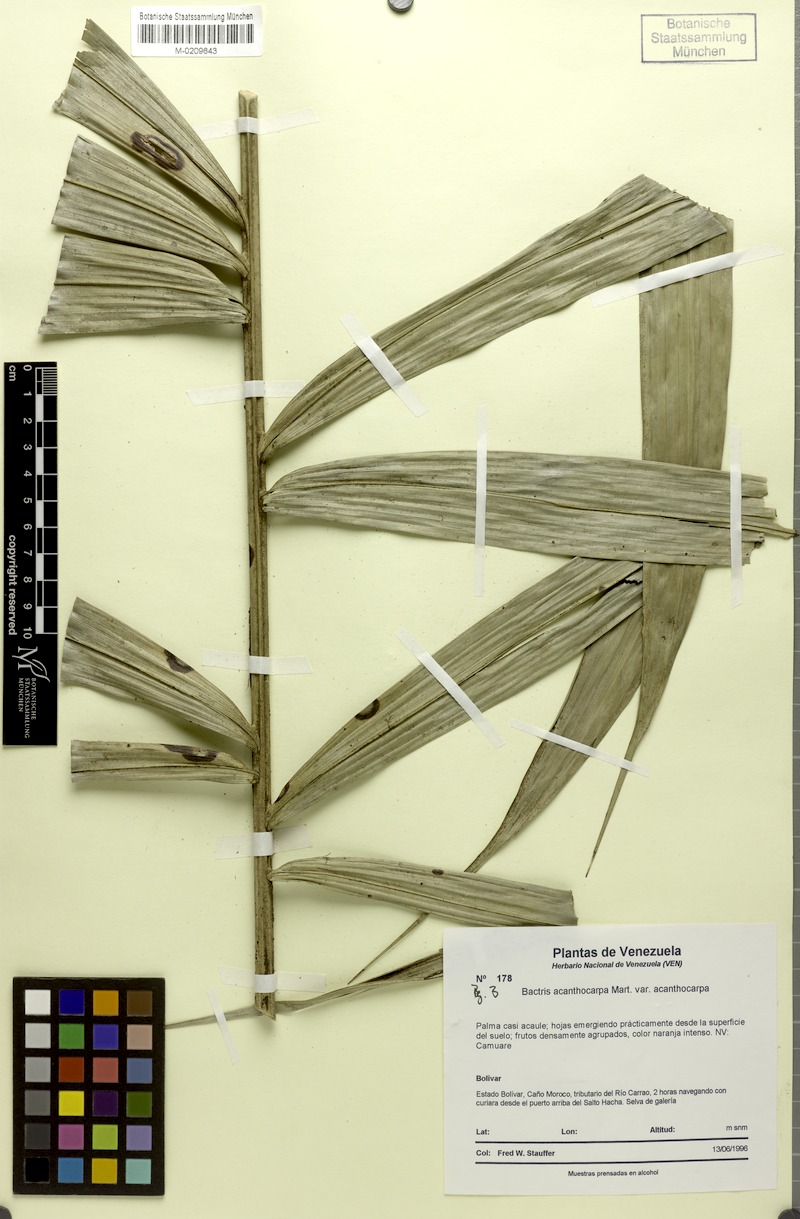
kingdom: Plantae
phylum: Tracheophyta
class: Liliopsida
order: Arecales
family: Arecaceae
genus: Bactris
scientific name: Bactris acanthocarpa
